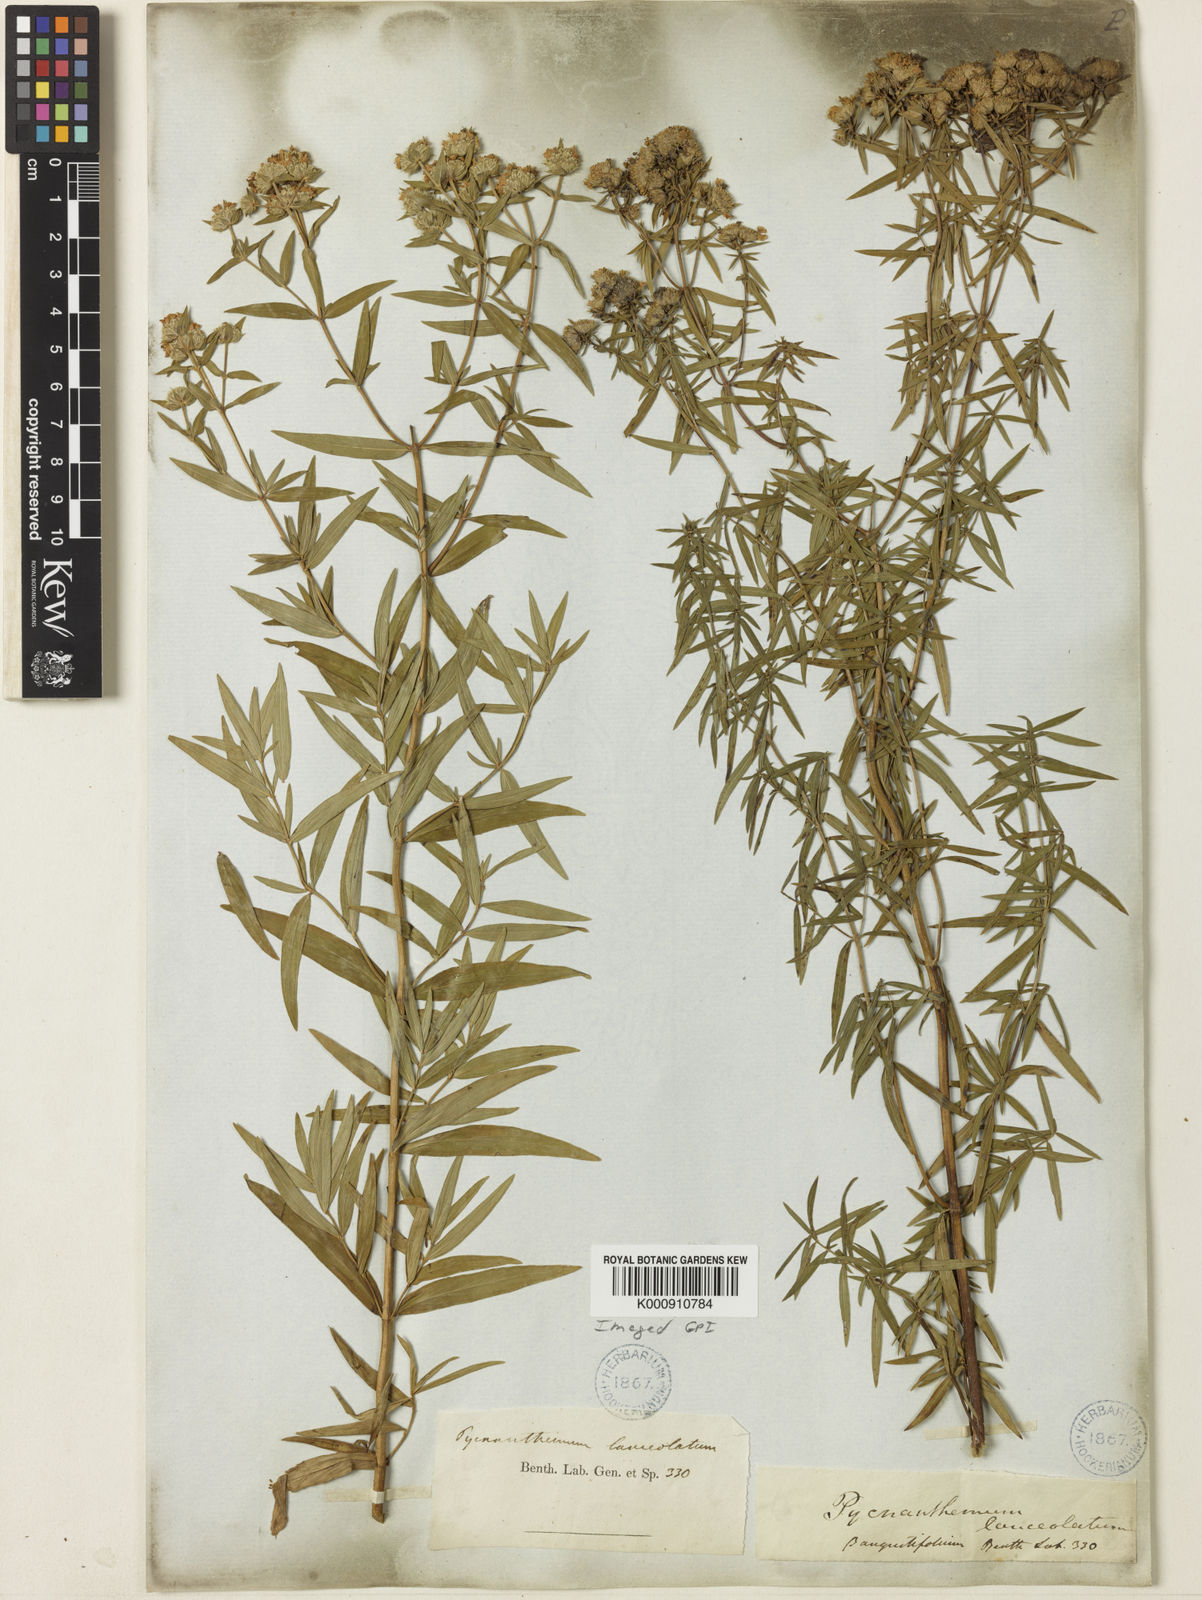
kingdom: Plantae
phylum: Tracheophyta
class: Magnoliopsida
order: Lamiales
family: Lamiaceae
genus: Pycnanthemum
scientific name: Pycnanthemum
